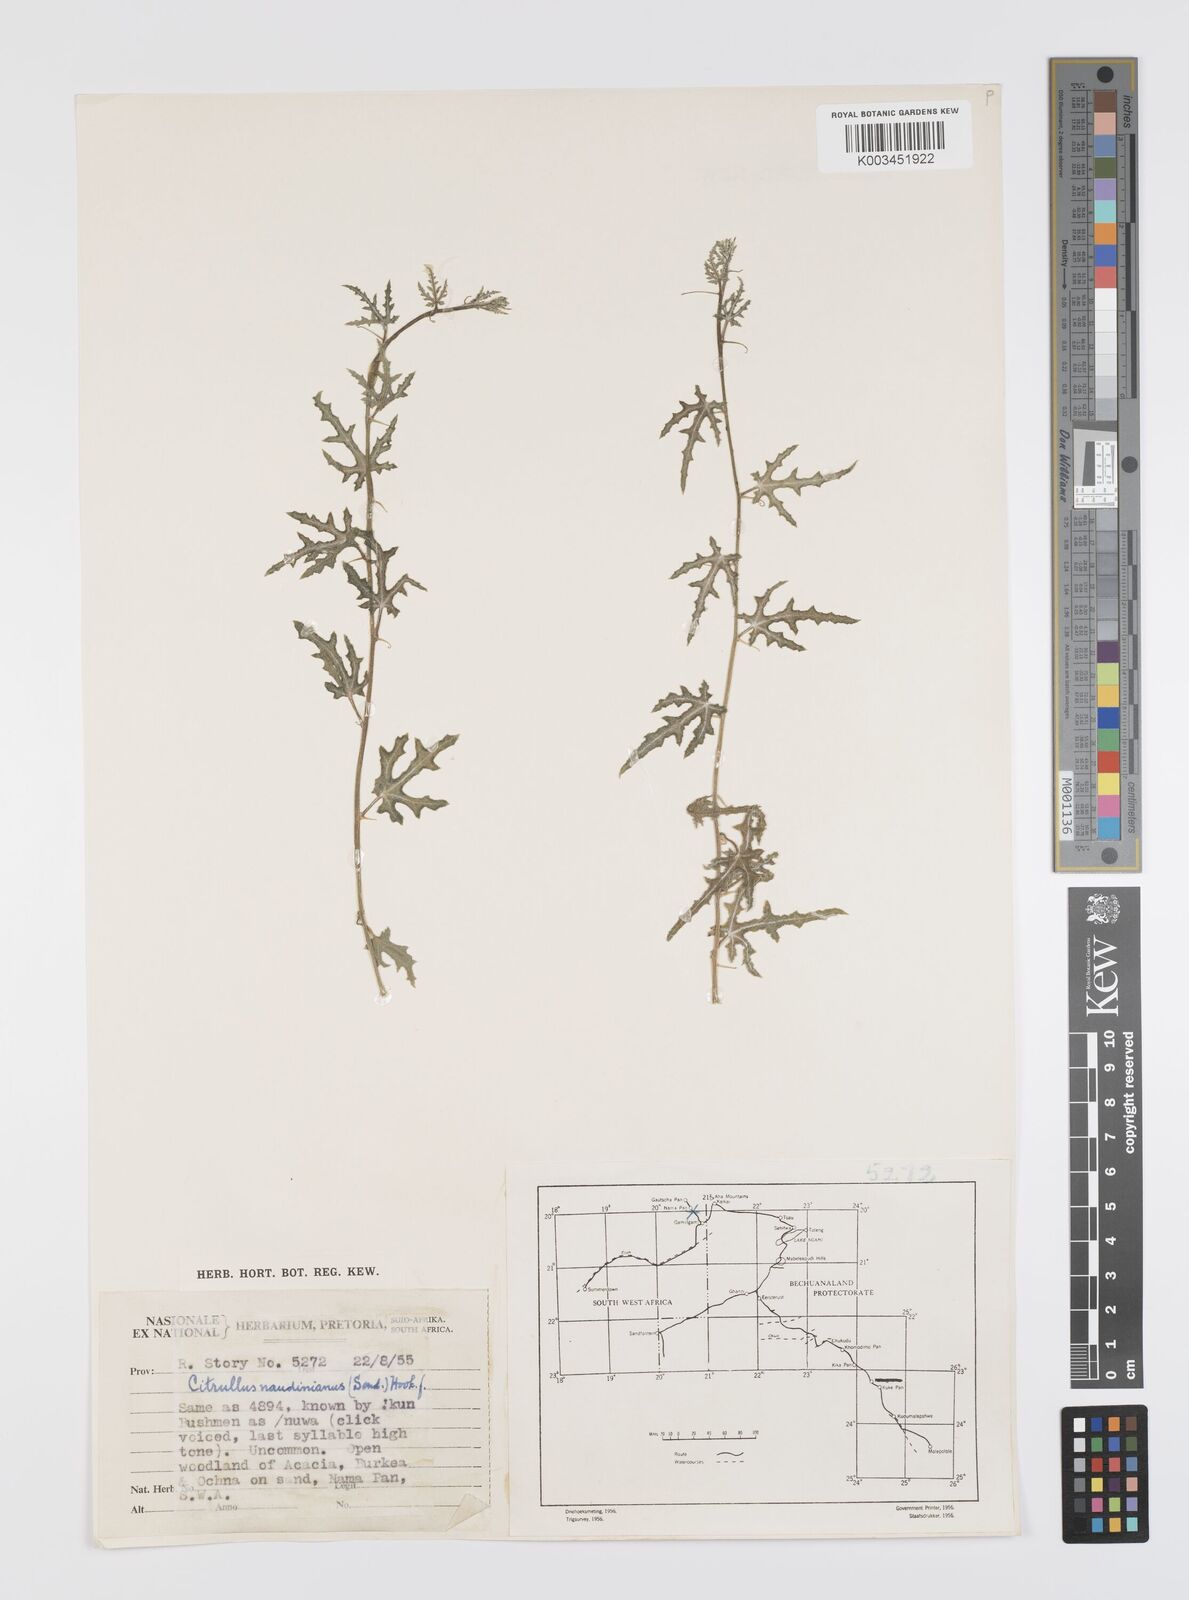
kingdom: Plantae
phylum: Tracheophyta
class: Magnoliopsida
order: Cucurbitales
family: Cucurbitaceae
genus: Citrullus
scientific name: Citrullus naudinianus
